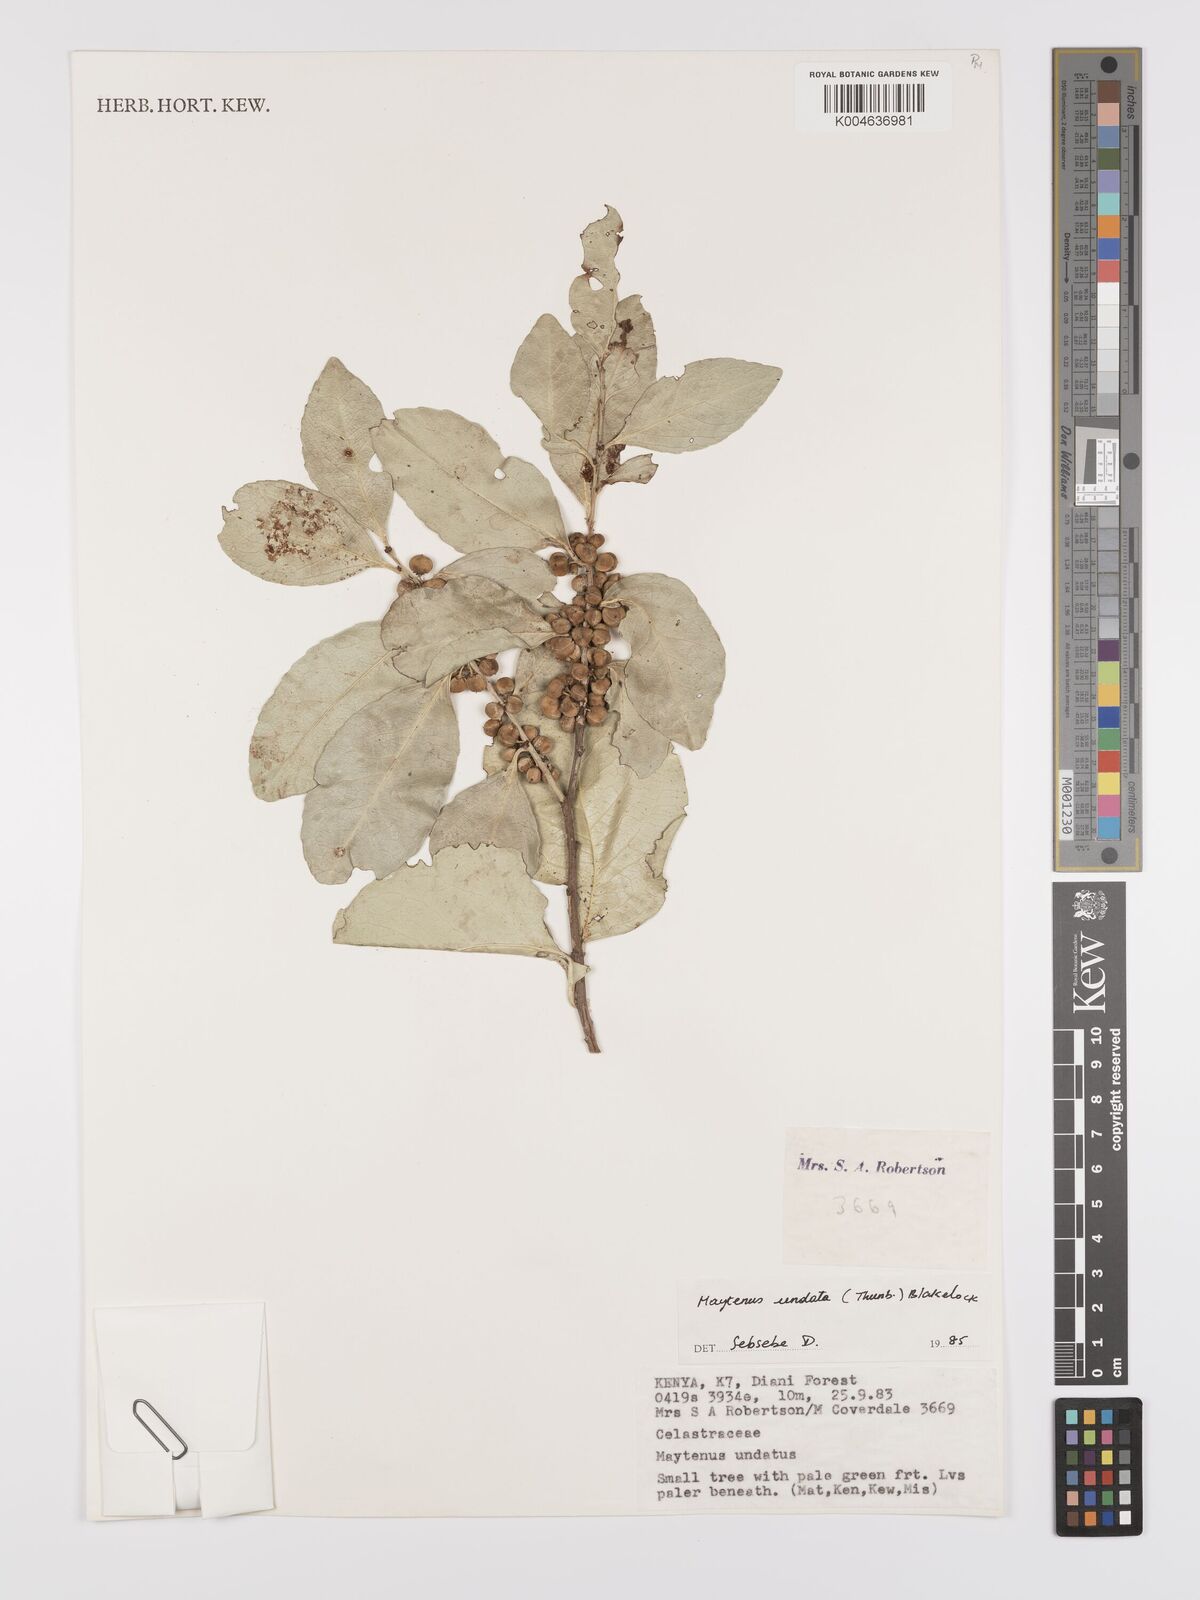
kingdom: Plantae
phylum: Tracheophyta
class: Magnoliopsida
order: Celastrales
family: Celastraceae
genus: Gymnosporia
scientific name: Gymnosporia undata
